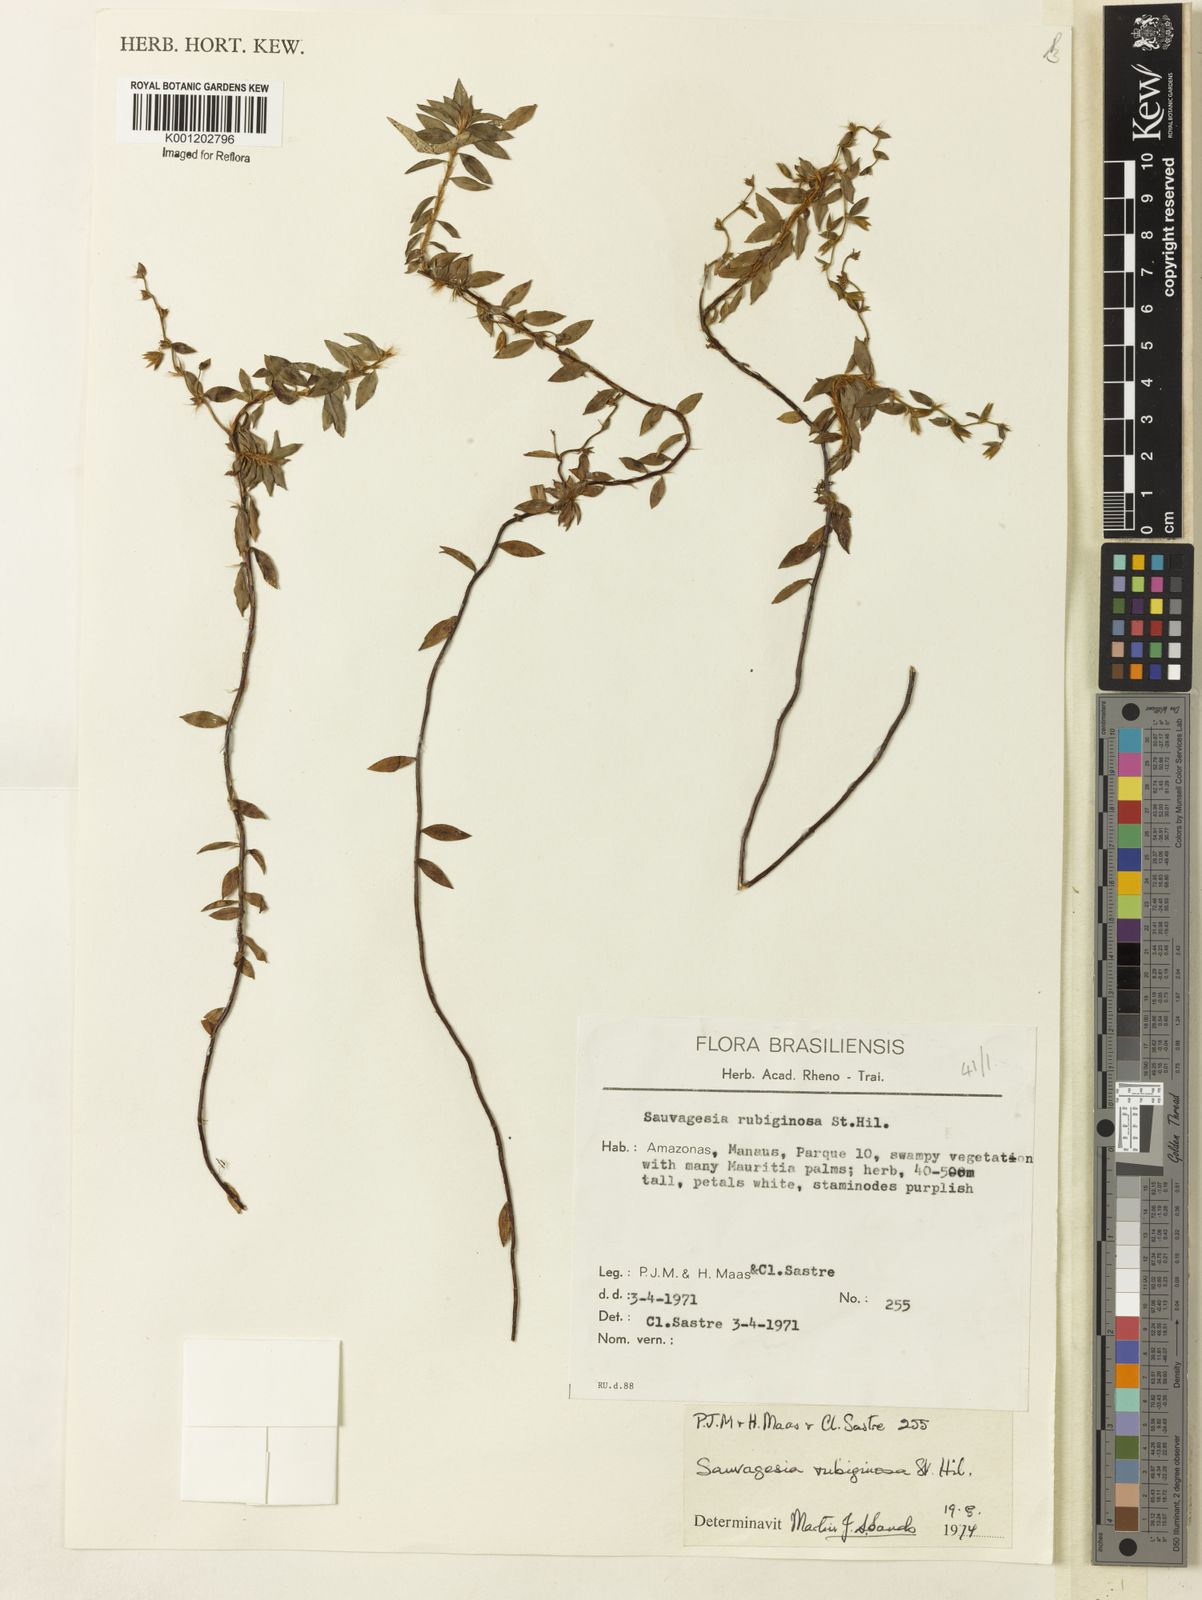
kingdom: Plantae
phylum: Tracheophyta
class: Magnoliopsida
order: Malpighiales
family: Ochnaceae
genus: Sauvagesia
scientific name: Sauvagesia rubiginosa
